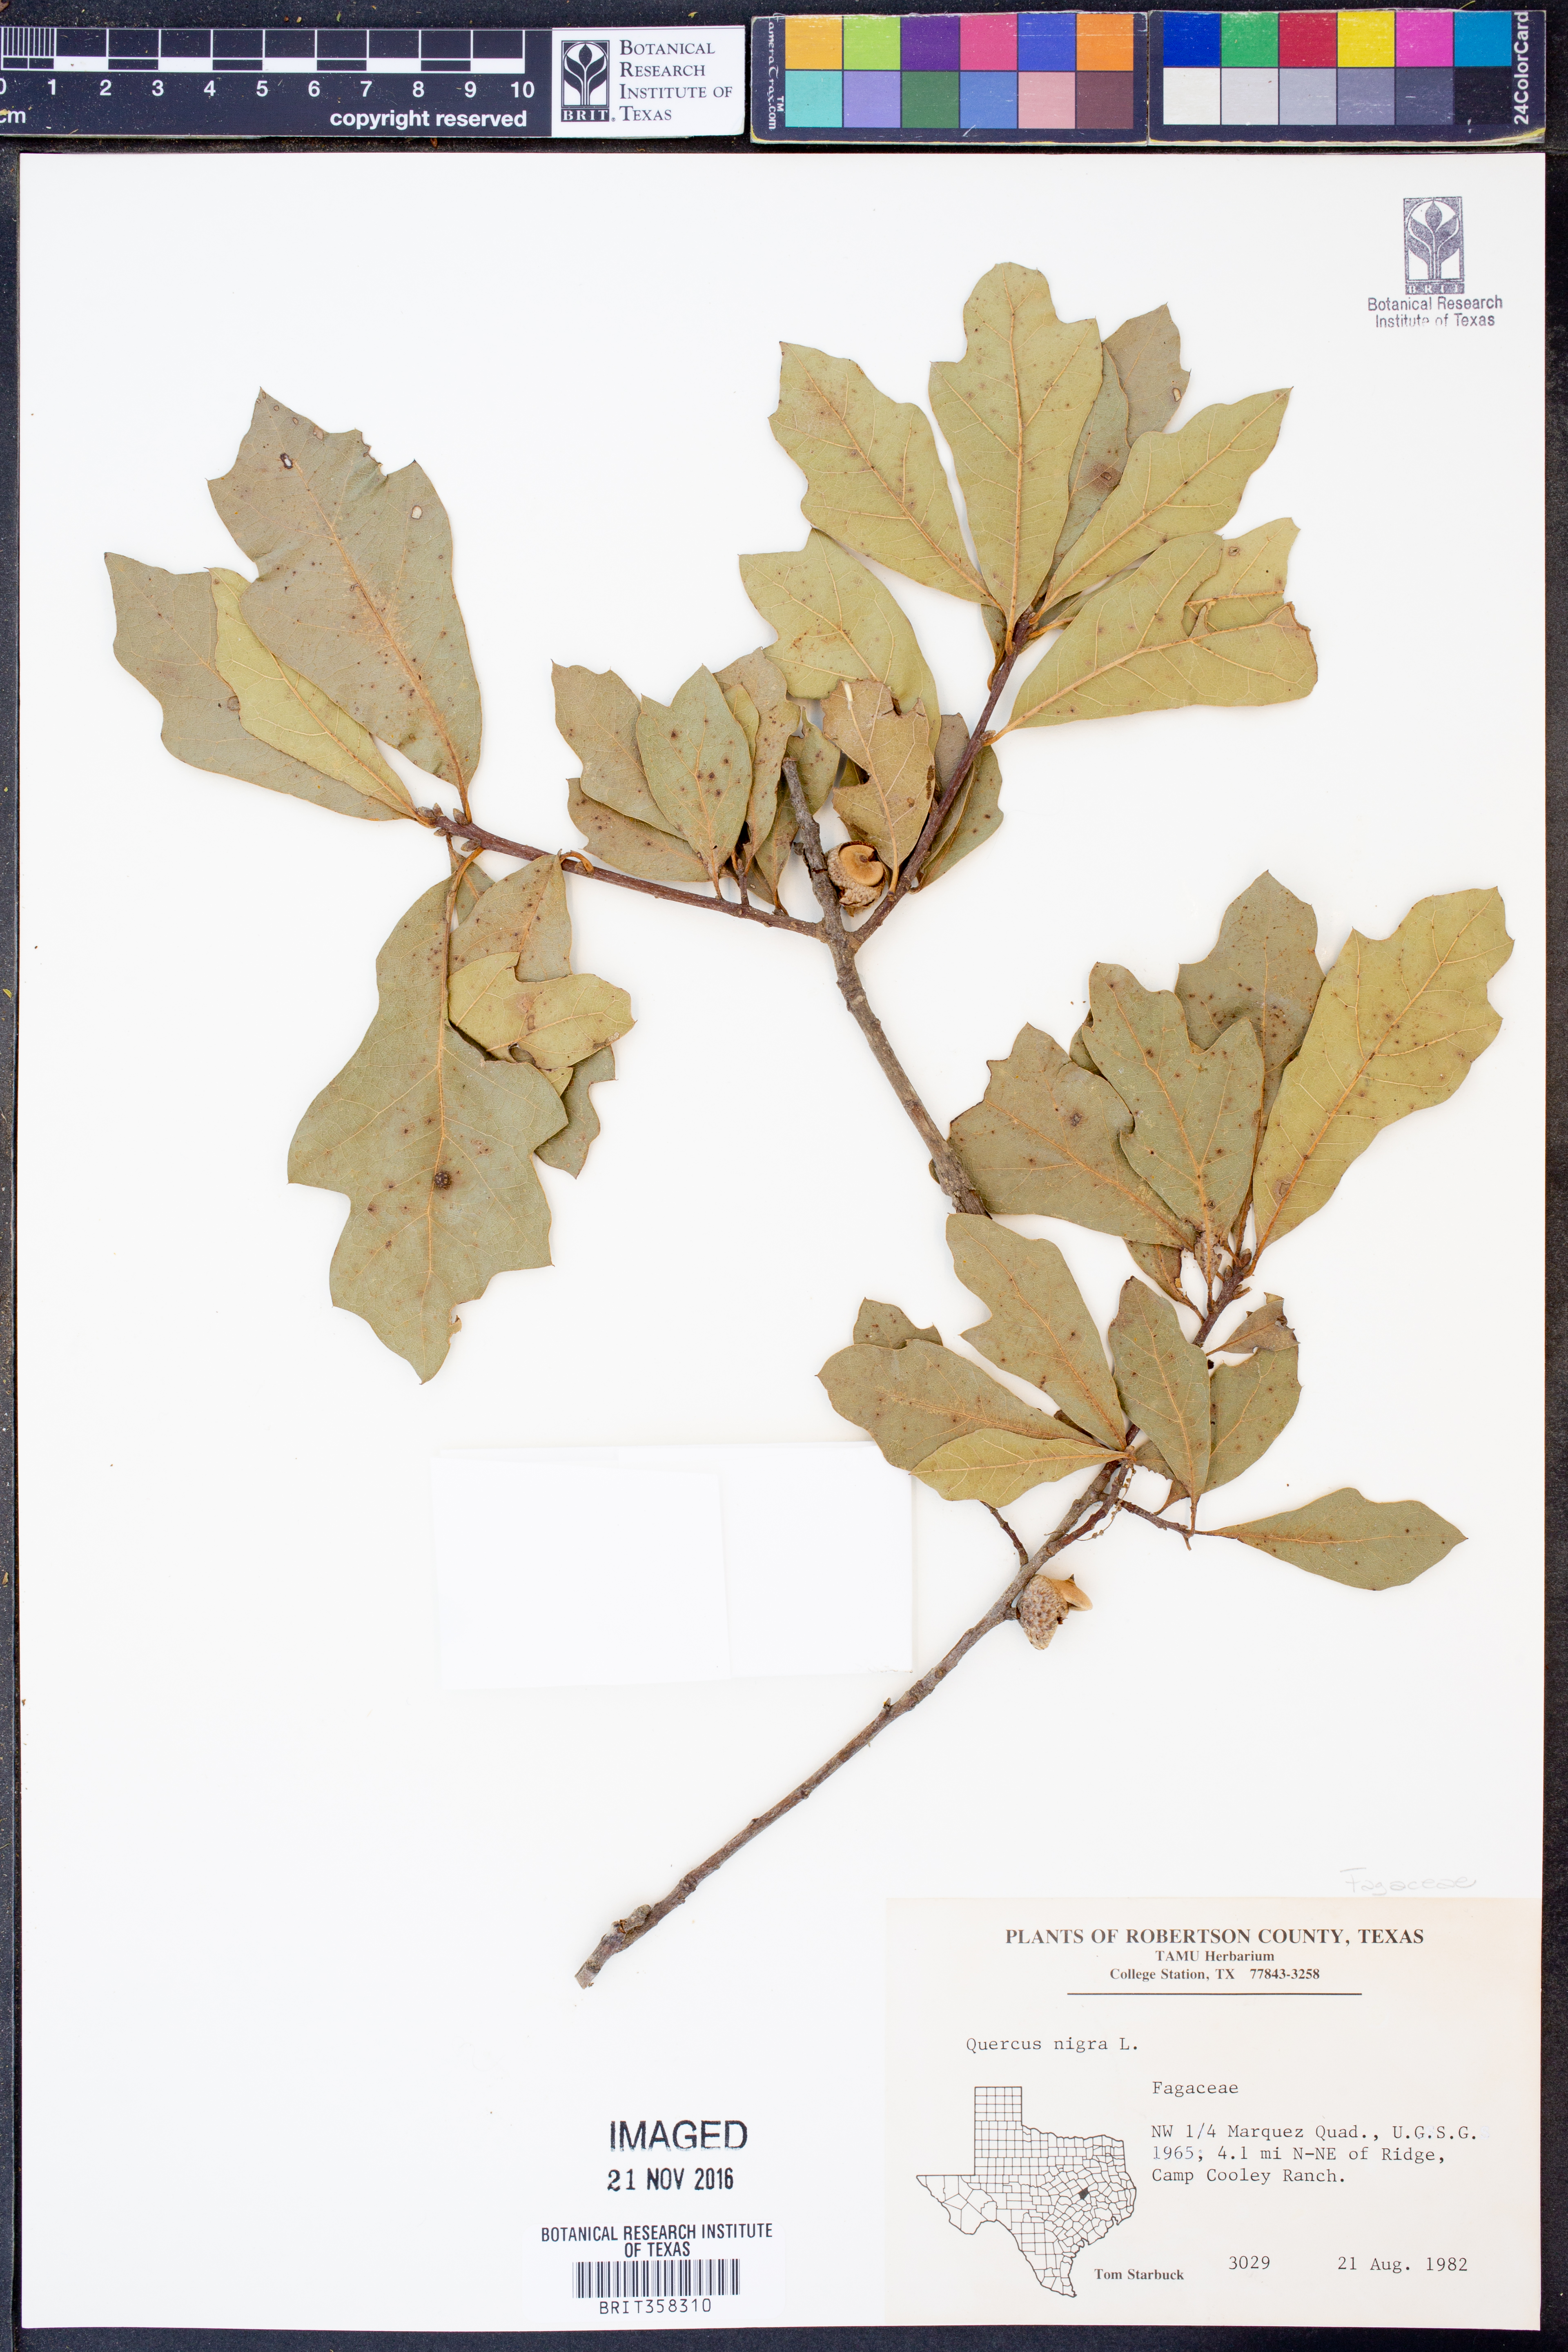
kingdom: Plantae
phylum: Tracheophyta
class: Magnoliopsida
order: Fagales
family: Fagaceae
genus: Quercus
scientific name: Quercus nigra
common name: Water oak
